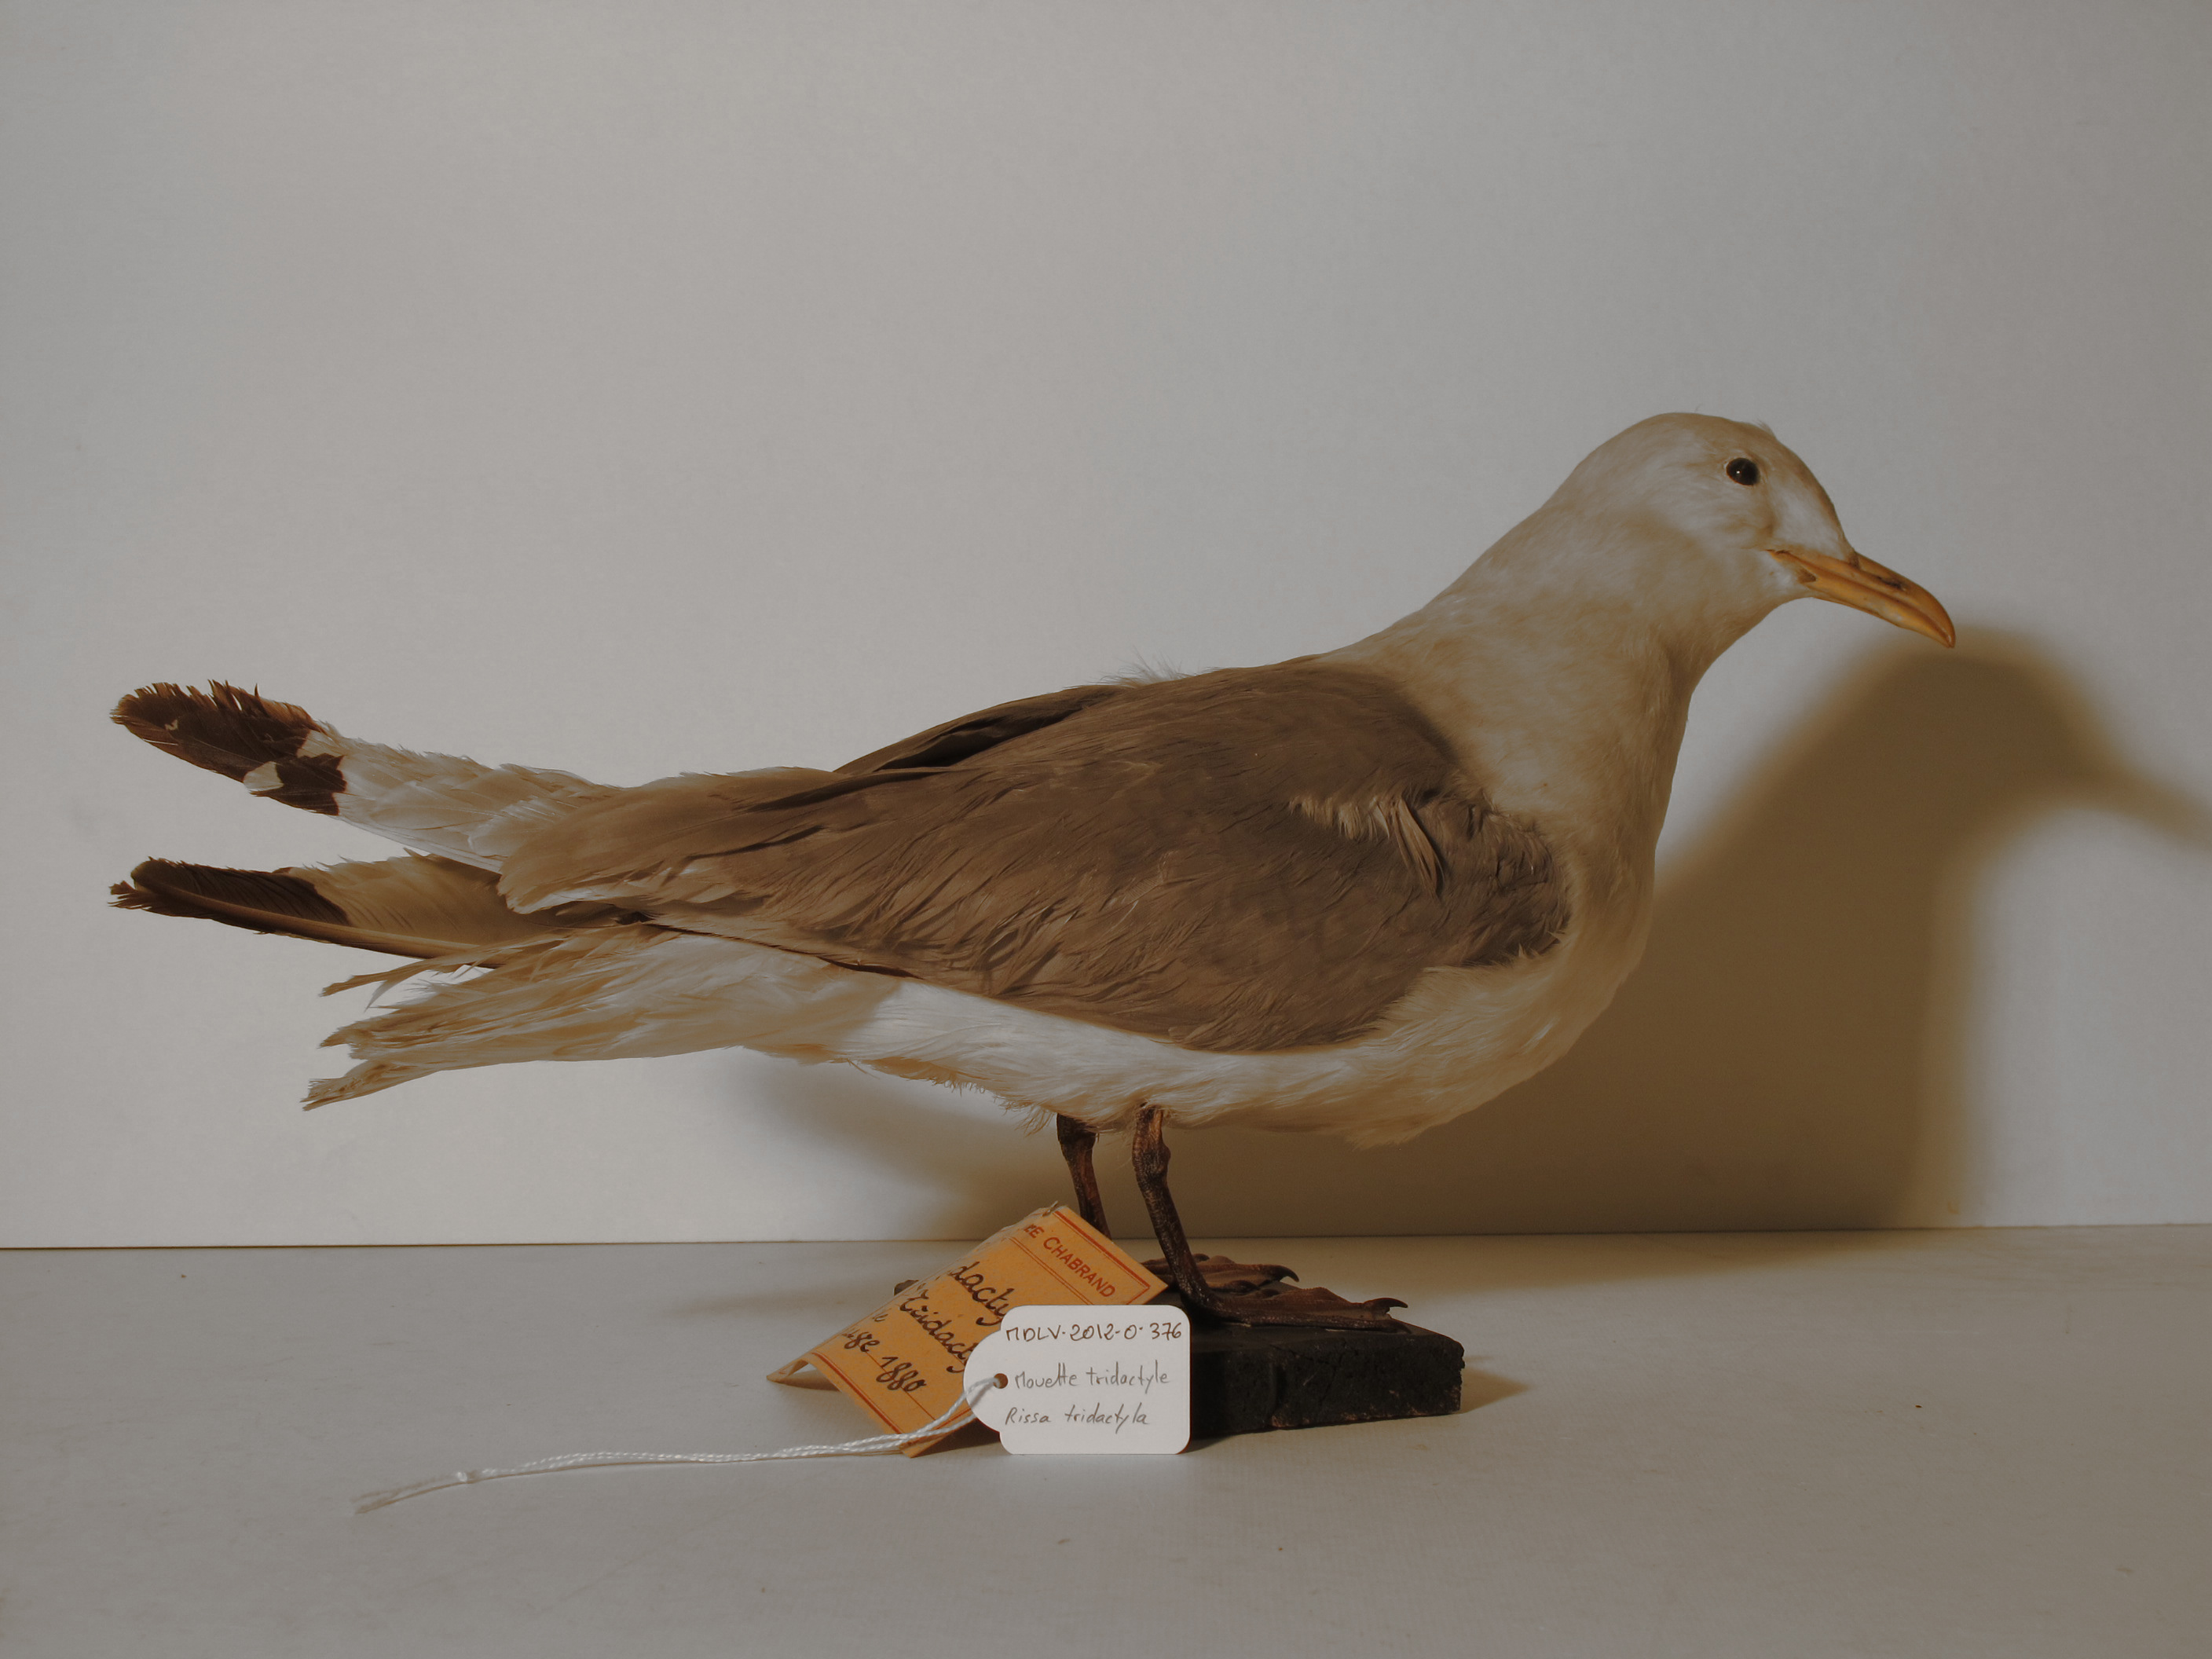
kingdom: Animalia
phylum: Chordata
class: Aves
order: Charadriiformes
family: Laridae
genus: Rissa
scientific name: Rissa tridactyla
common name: Black-legged Kittiwake
